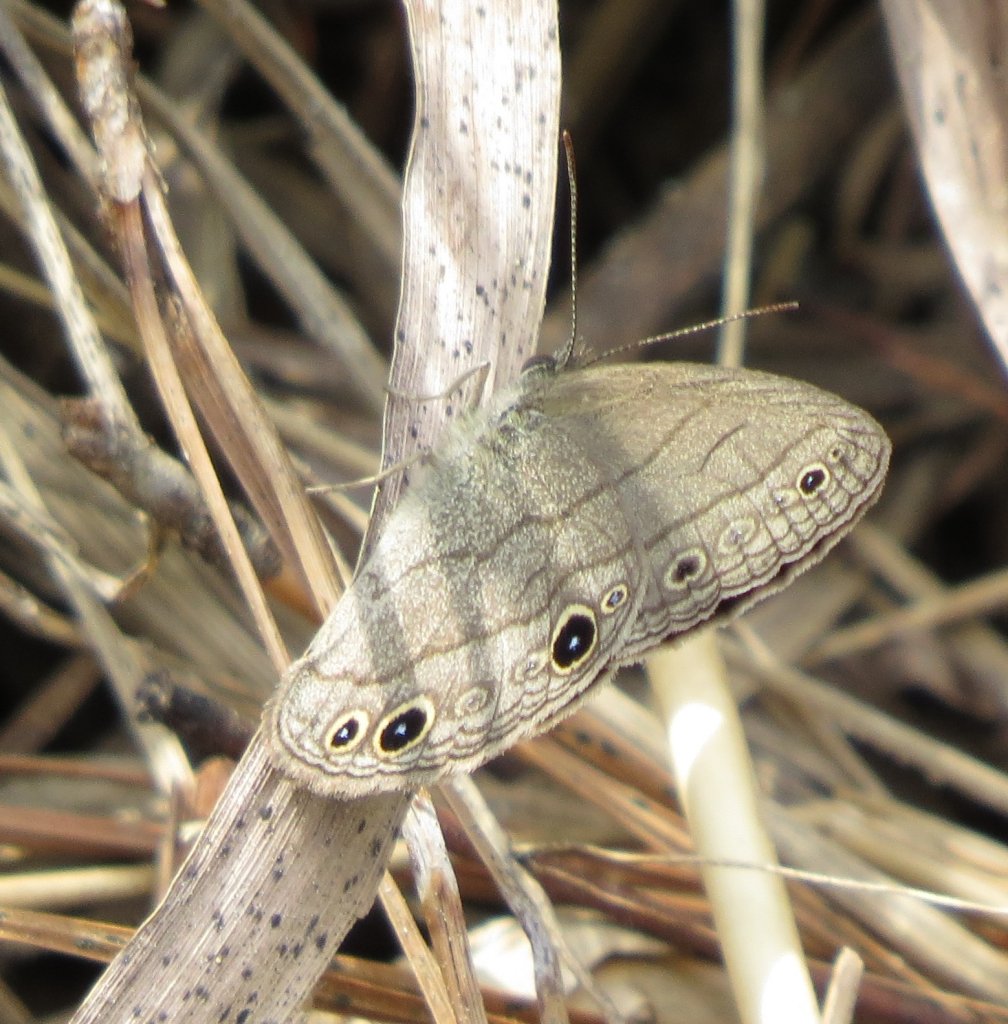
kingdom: Animalia
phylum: Arthropoda
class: Insecta
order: Lepidoptera
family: Nymphalidae
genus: Hermeuptychia
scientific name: Hermeuptychia hermes
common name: Carolina Satyr
